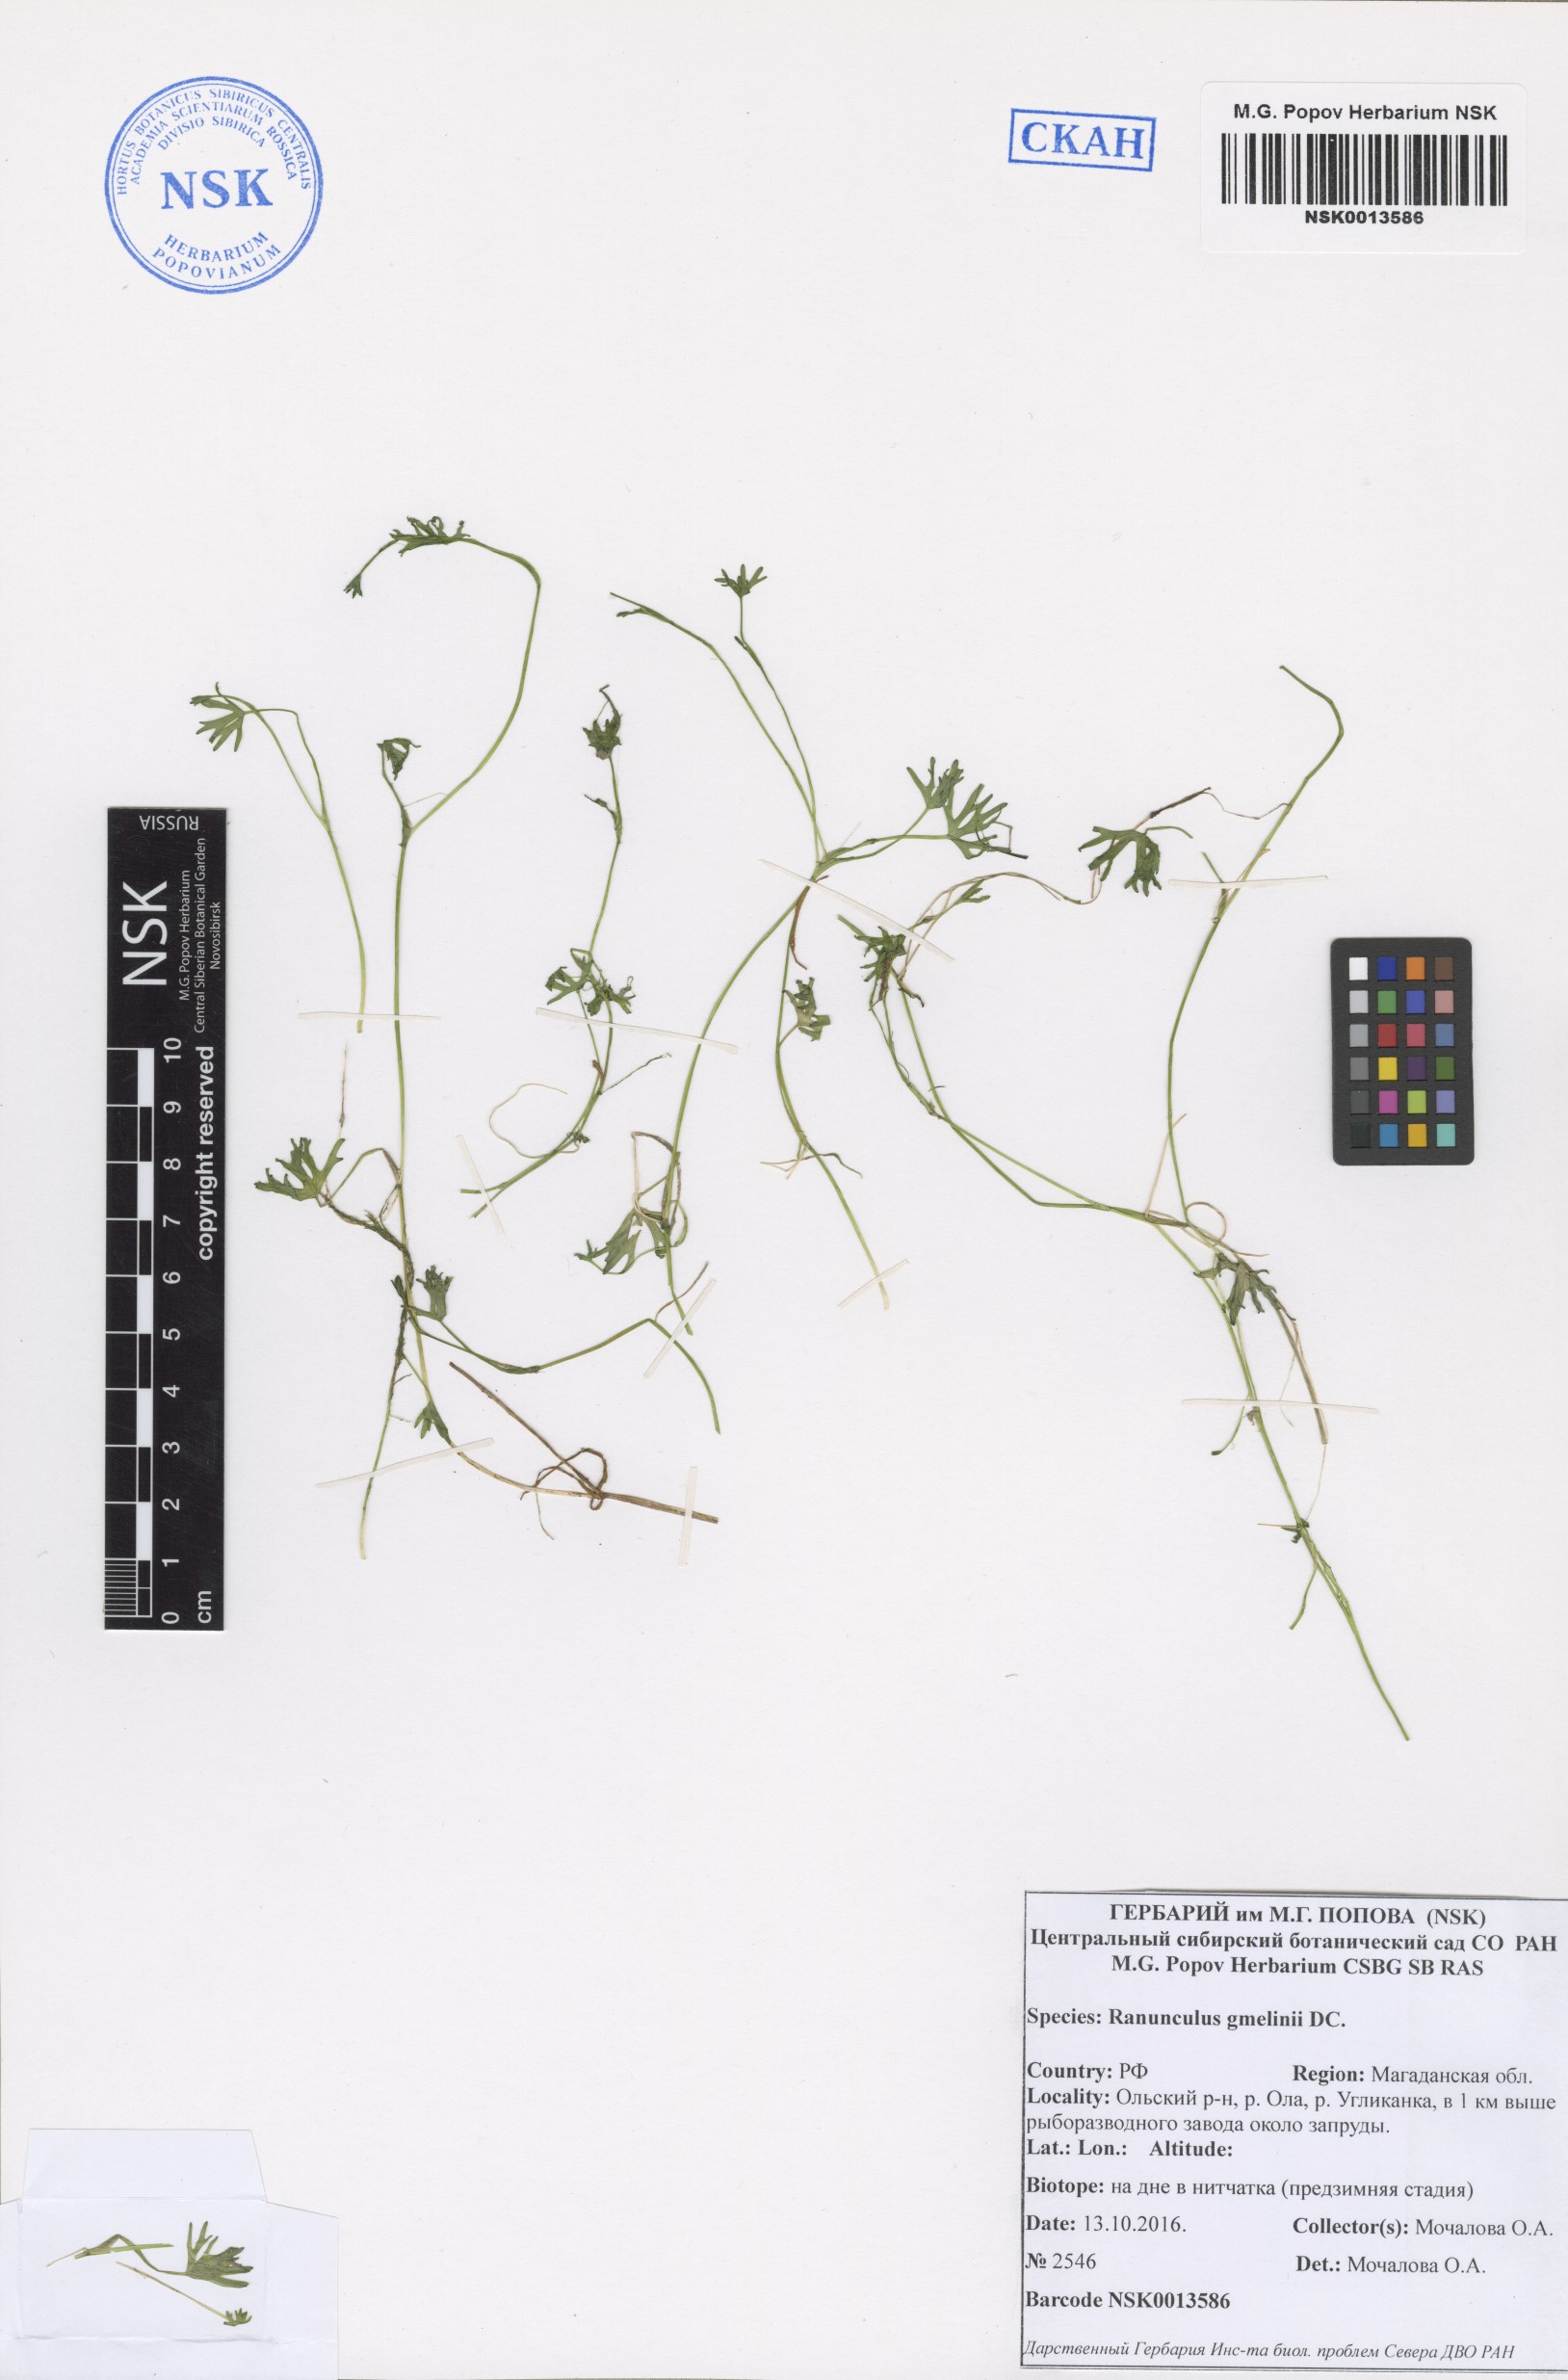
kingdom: Plantae
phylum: Tracheophyta
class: Magnoliopsida
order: Ranunculales
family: Ranunculaceae
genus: Ranunculus
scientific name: Ranunculus gmelinii
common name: Gmelin's buttercup
